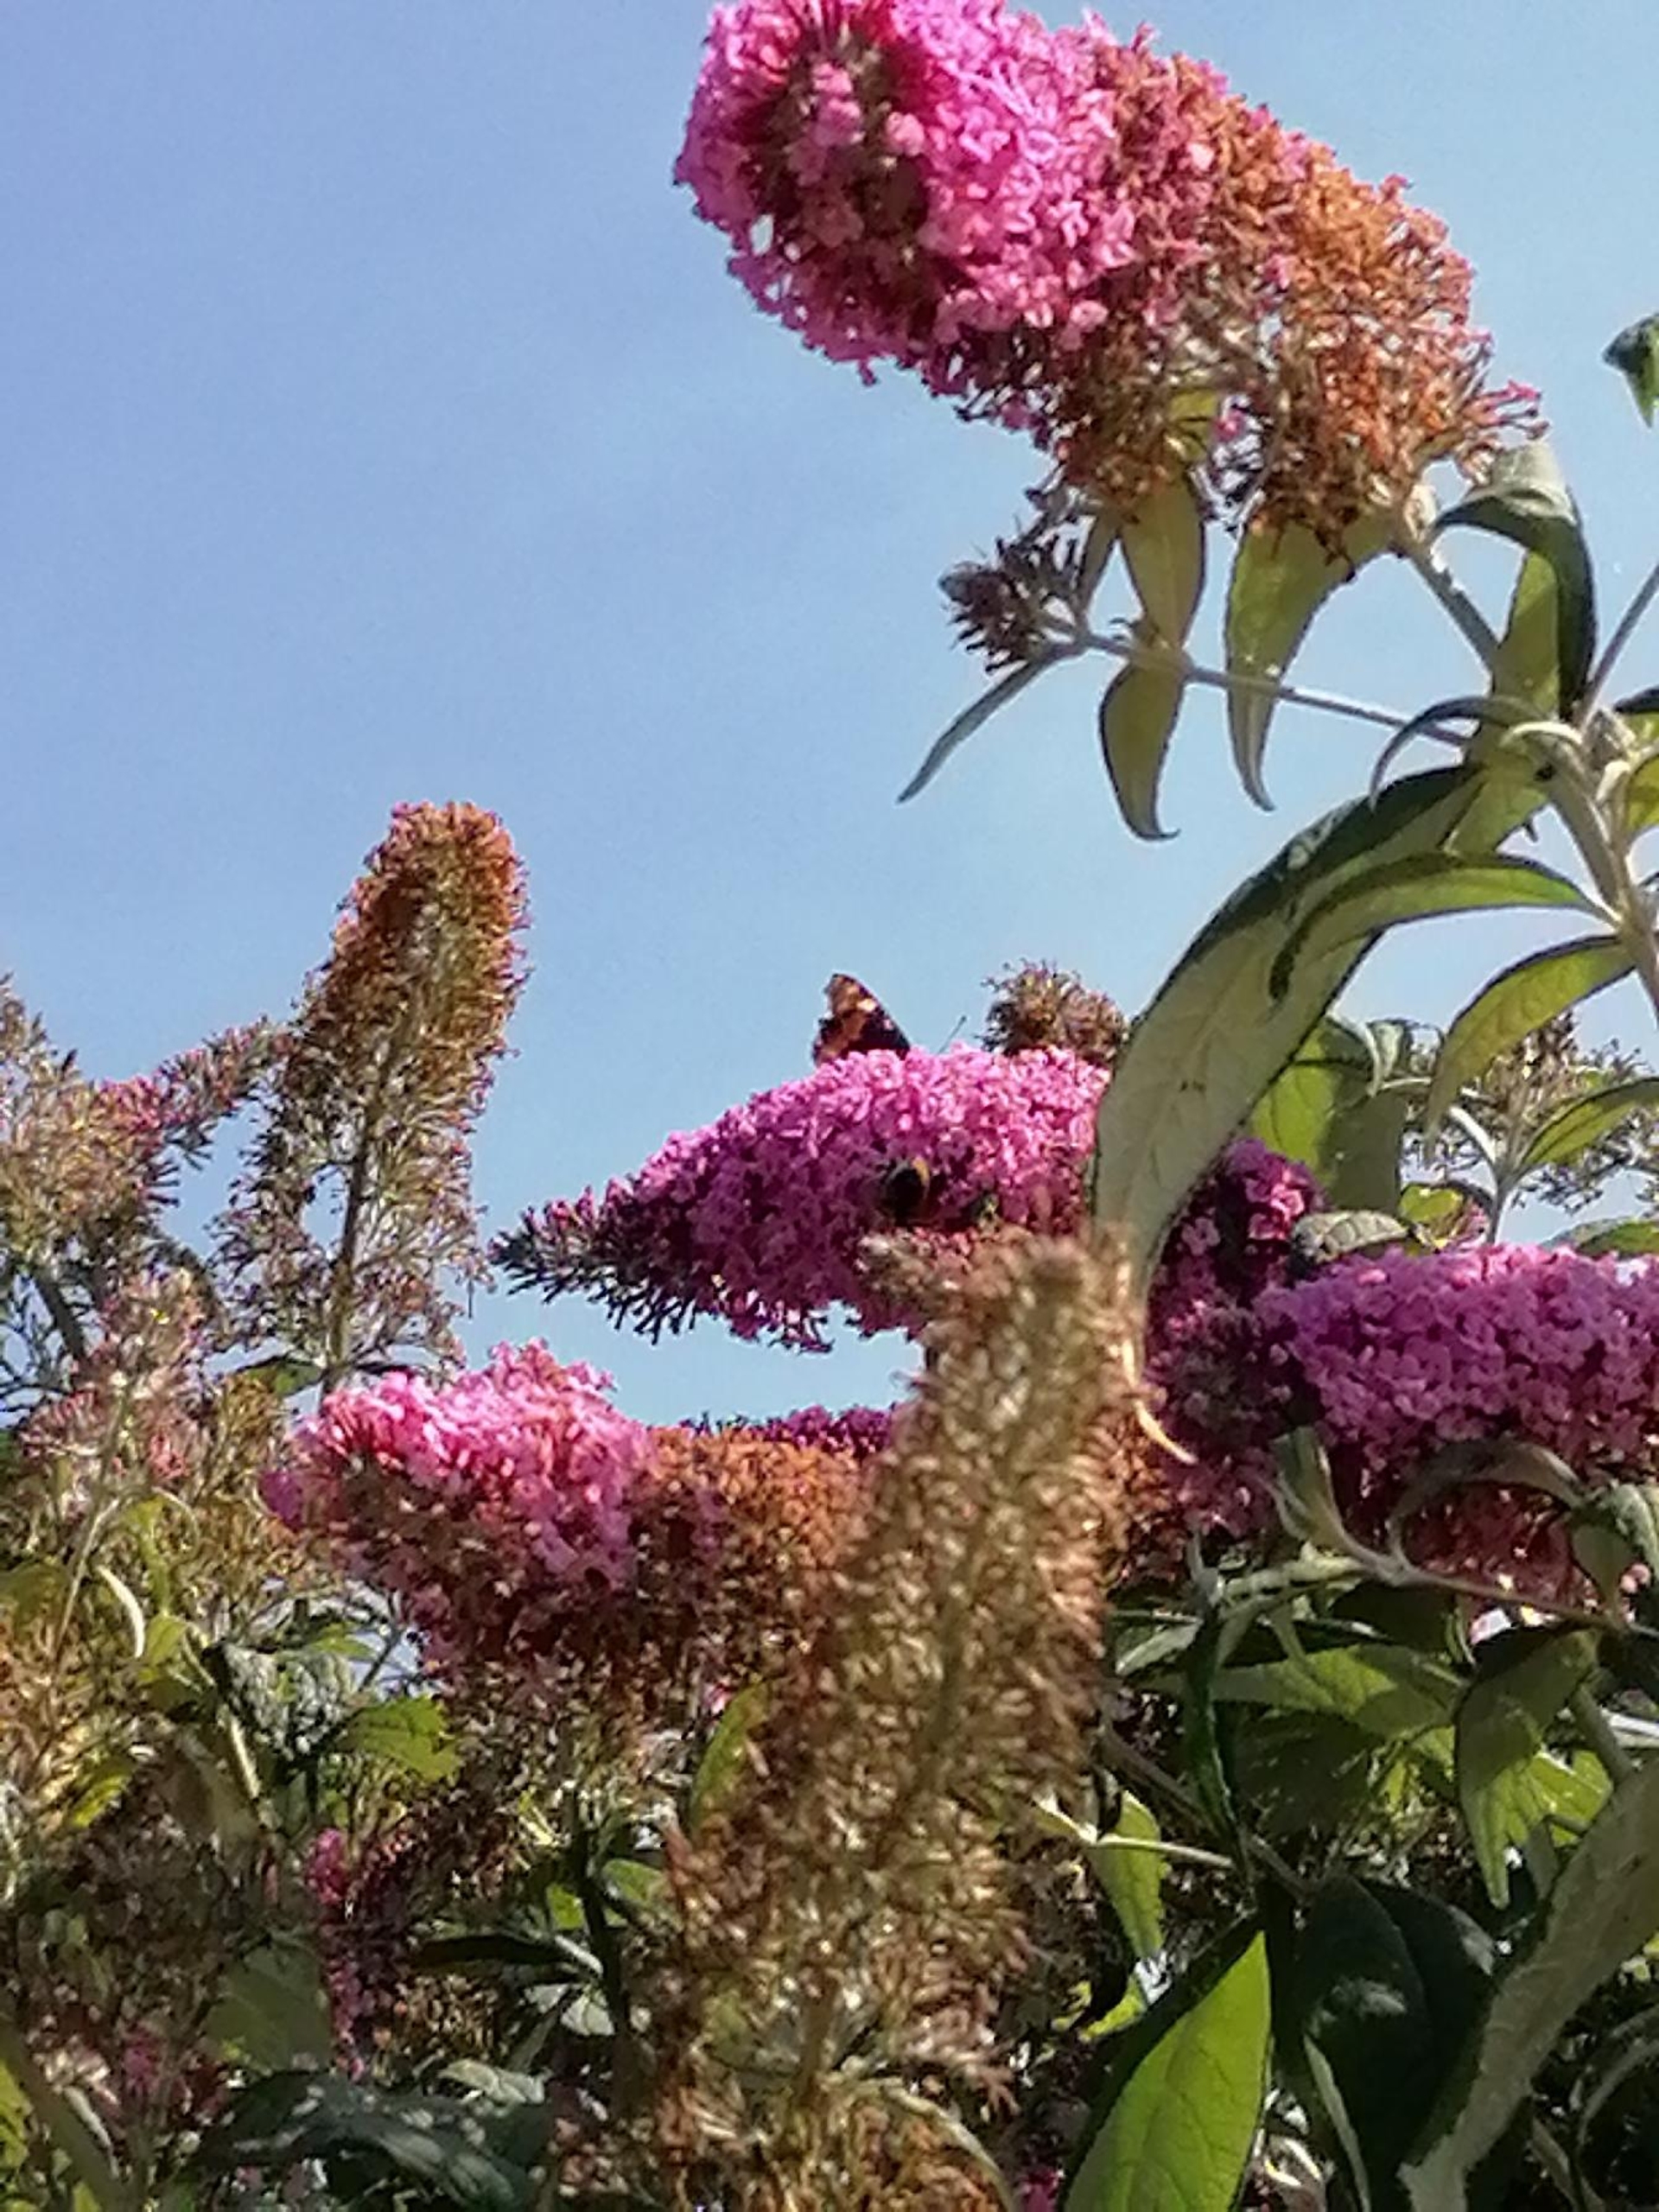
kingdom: Animalia
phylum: Arthropoda
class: Insecta
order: Lepidoptera
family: Nymphalidae
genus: Aglais
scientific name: Aglais urticae
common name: Nældens takvinge
